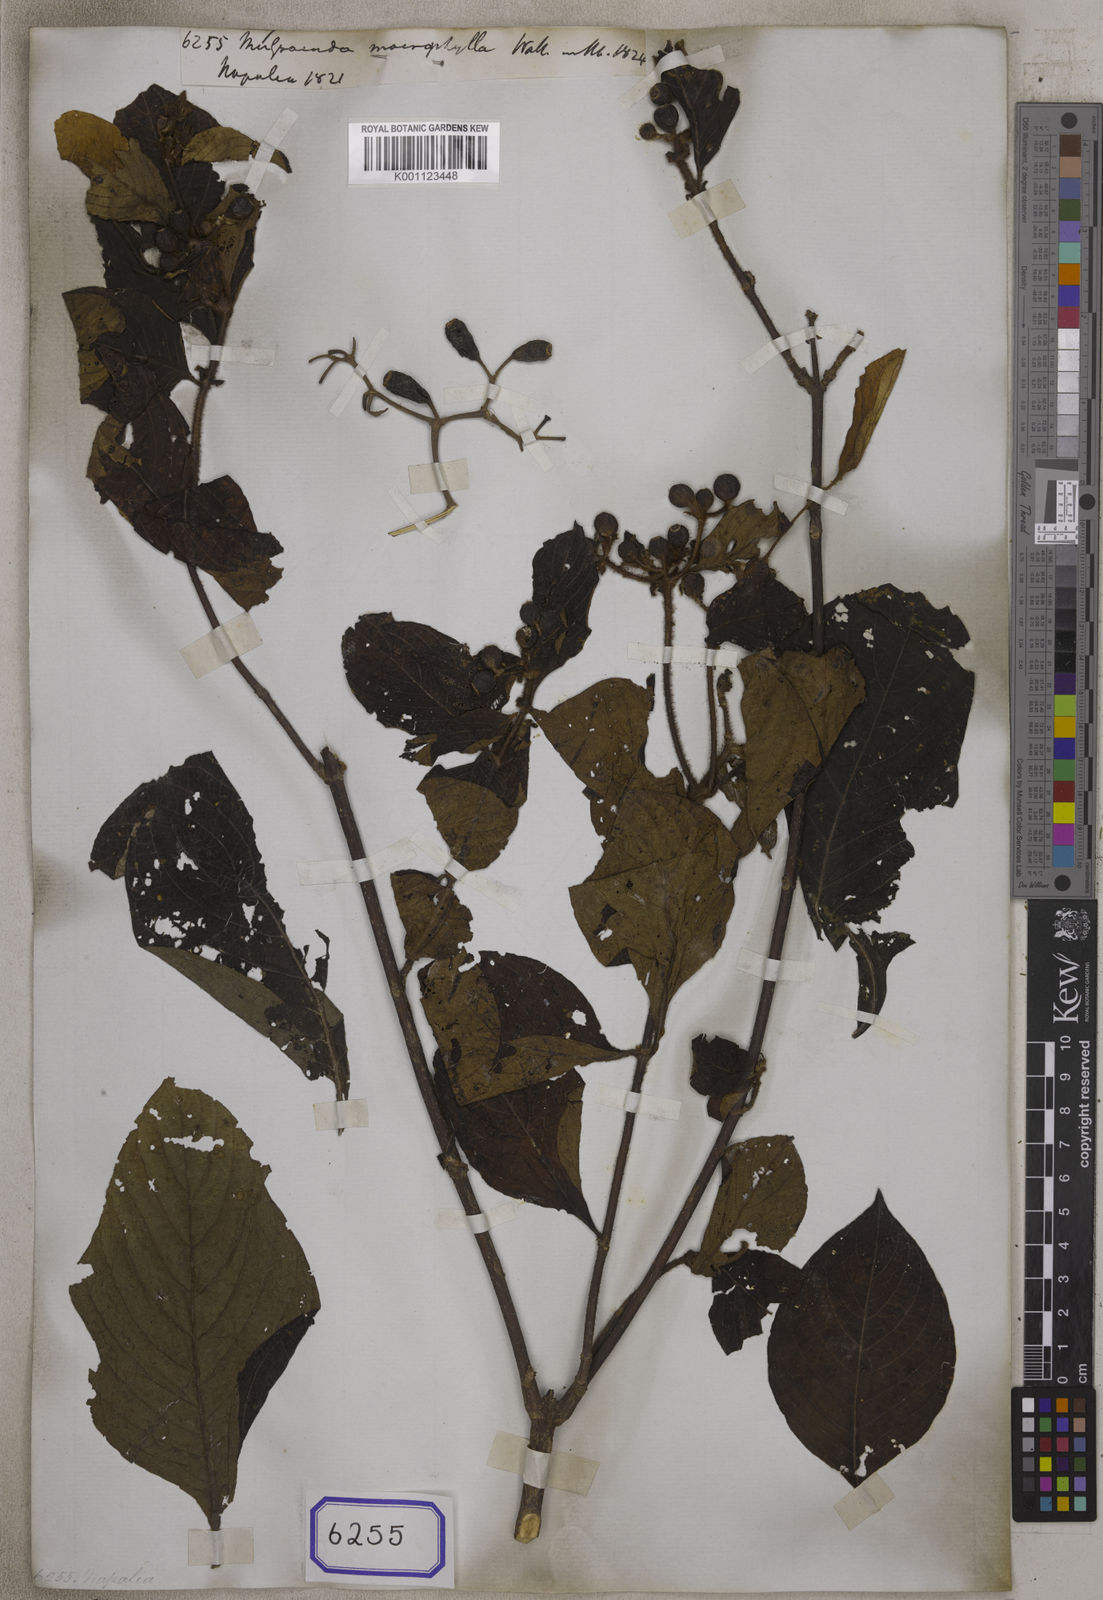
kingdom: Plantae
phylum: Tracheophyta
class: Magnoliopsida
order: Gentianales
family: Rubiaceae
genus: Mussaenda
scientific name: Mussaenda macrophylla
